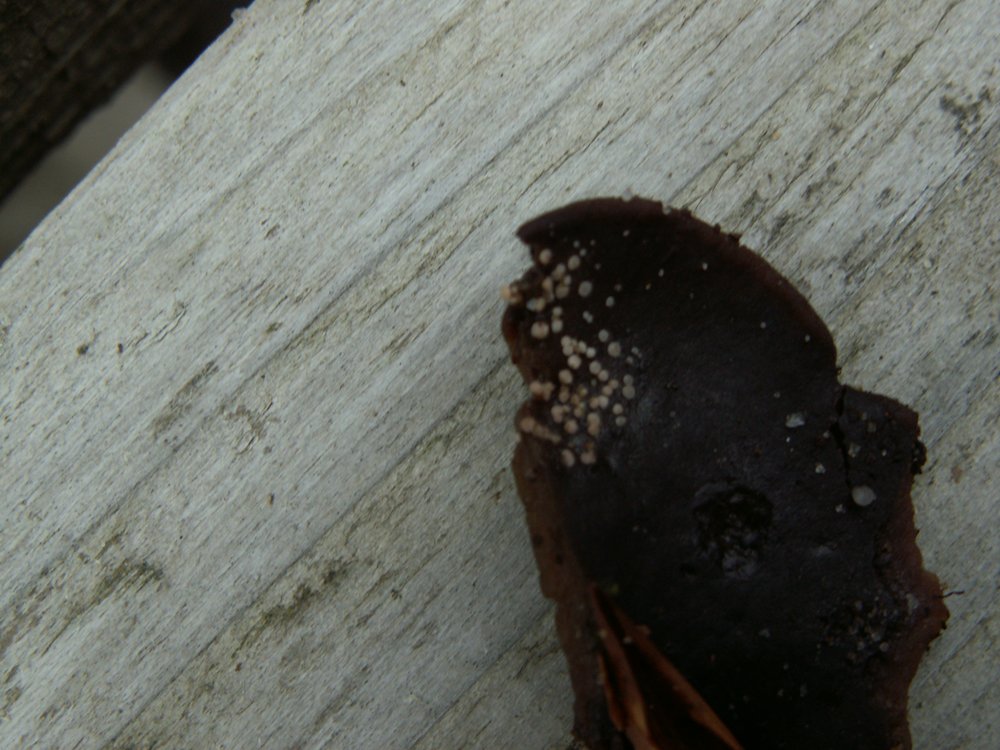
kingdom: Fungi
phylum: Ascomycota
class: Sordariomycetes
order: Hypocreales
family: Nectriaceae
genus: Volutella
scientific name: Volutella
